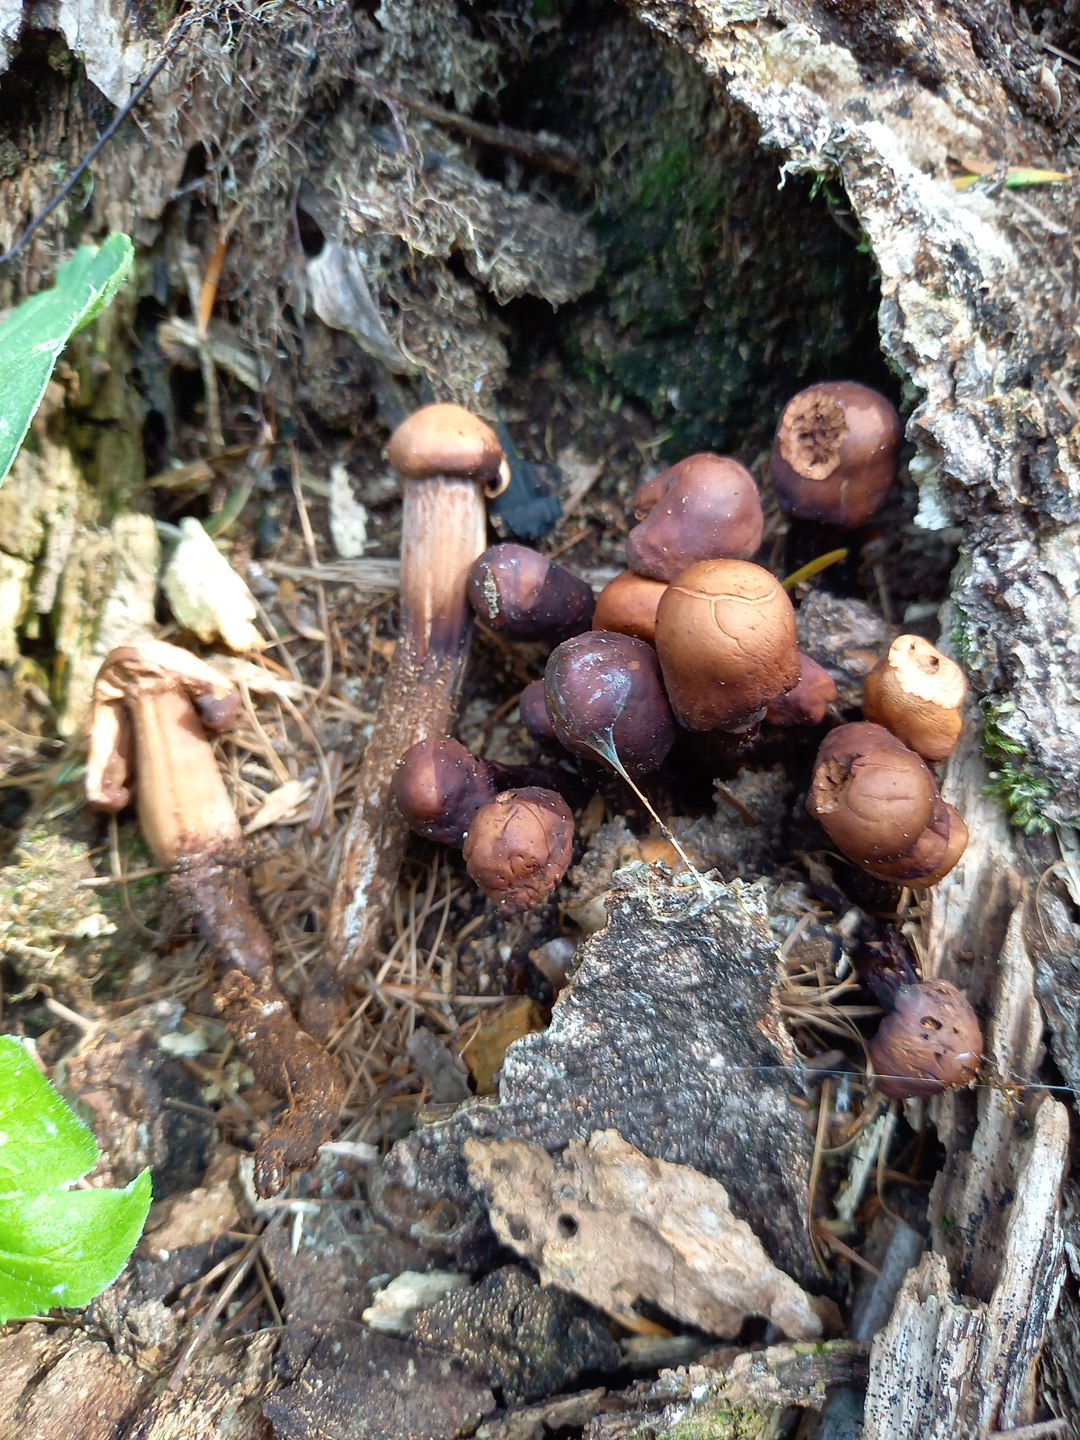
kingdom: Fungi
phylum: Basidiomycota
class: Agaricomycetes
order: Agaricales
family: Omphalotaceae
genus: Gymnopus
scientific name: Gymnopus fusipes
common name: tenstokket fladhat
